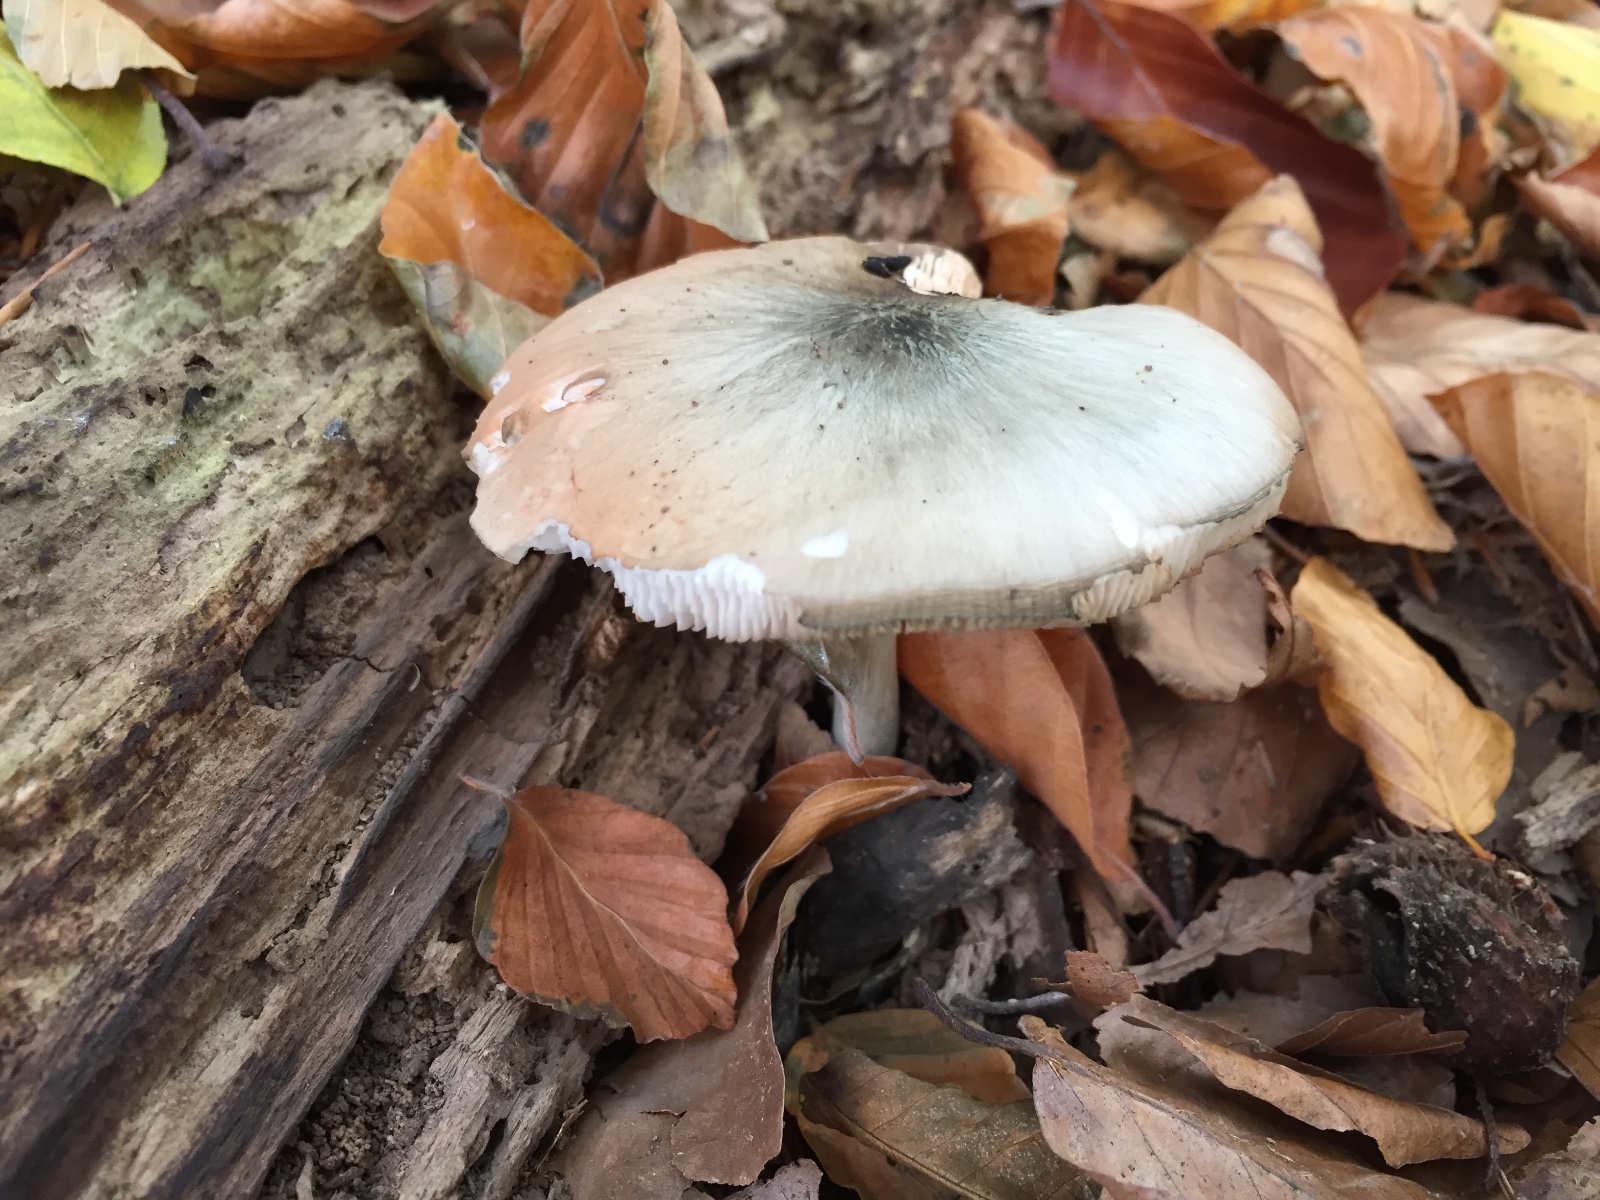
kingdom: Fungi
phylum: Basidiomycota
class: Agaricomycetes
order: Agaricales
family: Pluteaceae
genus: Pluteus
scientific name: Pluteus salicinus
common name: stiv skærmhat
